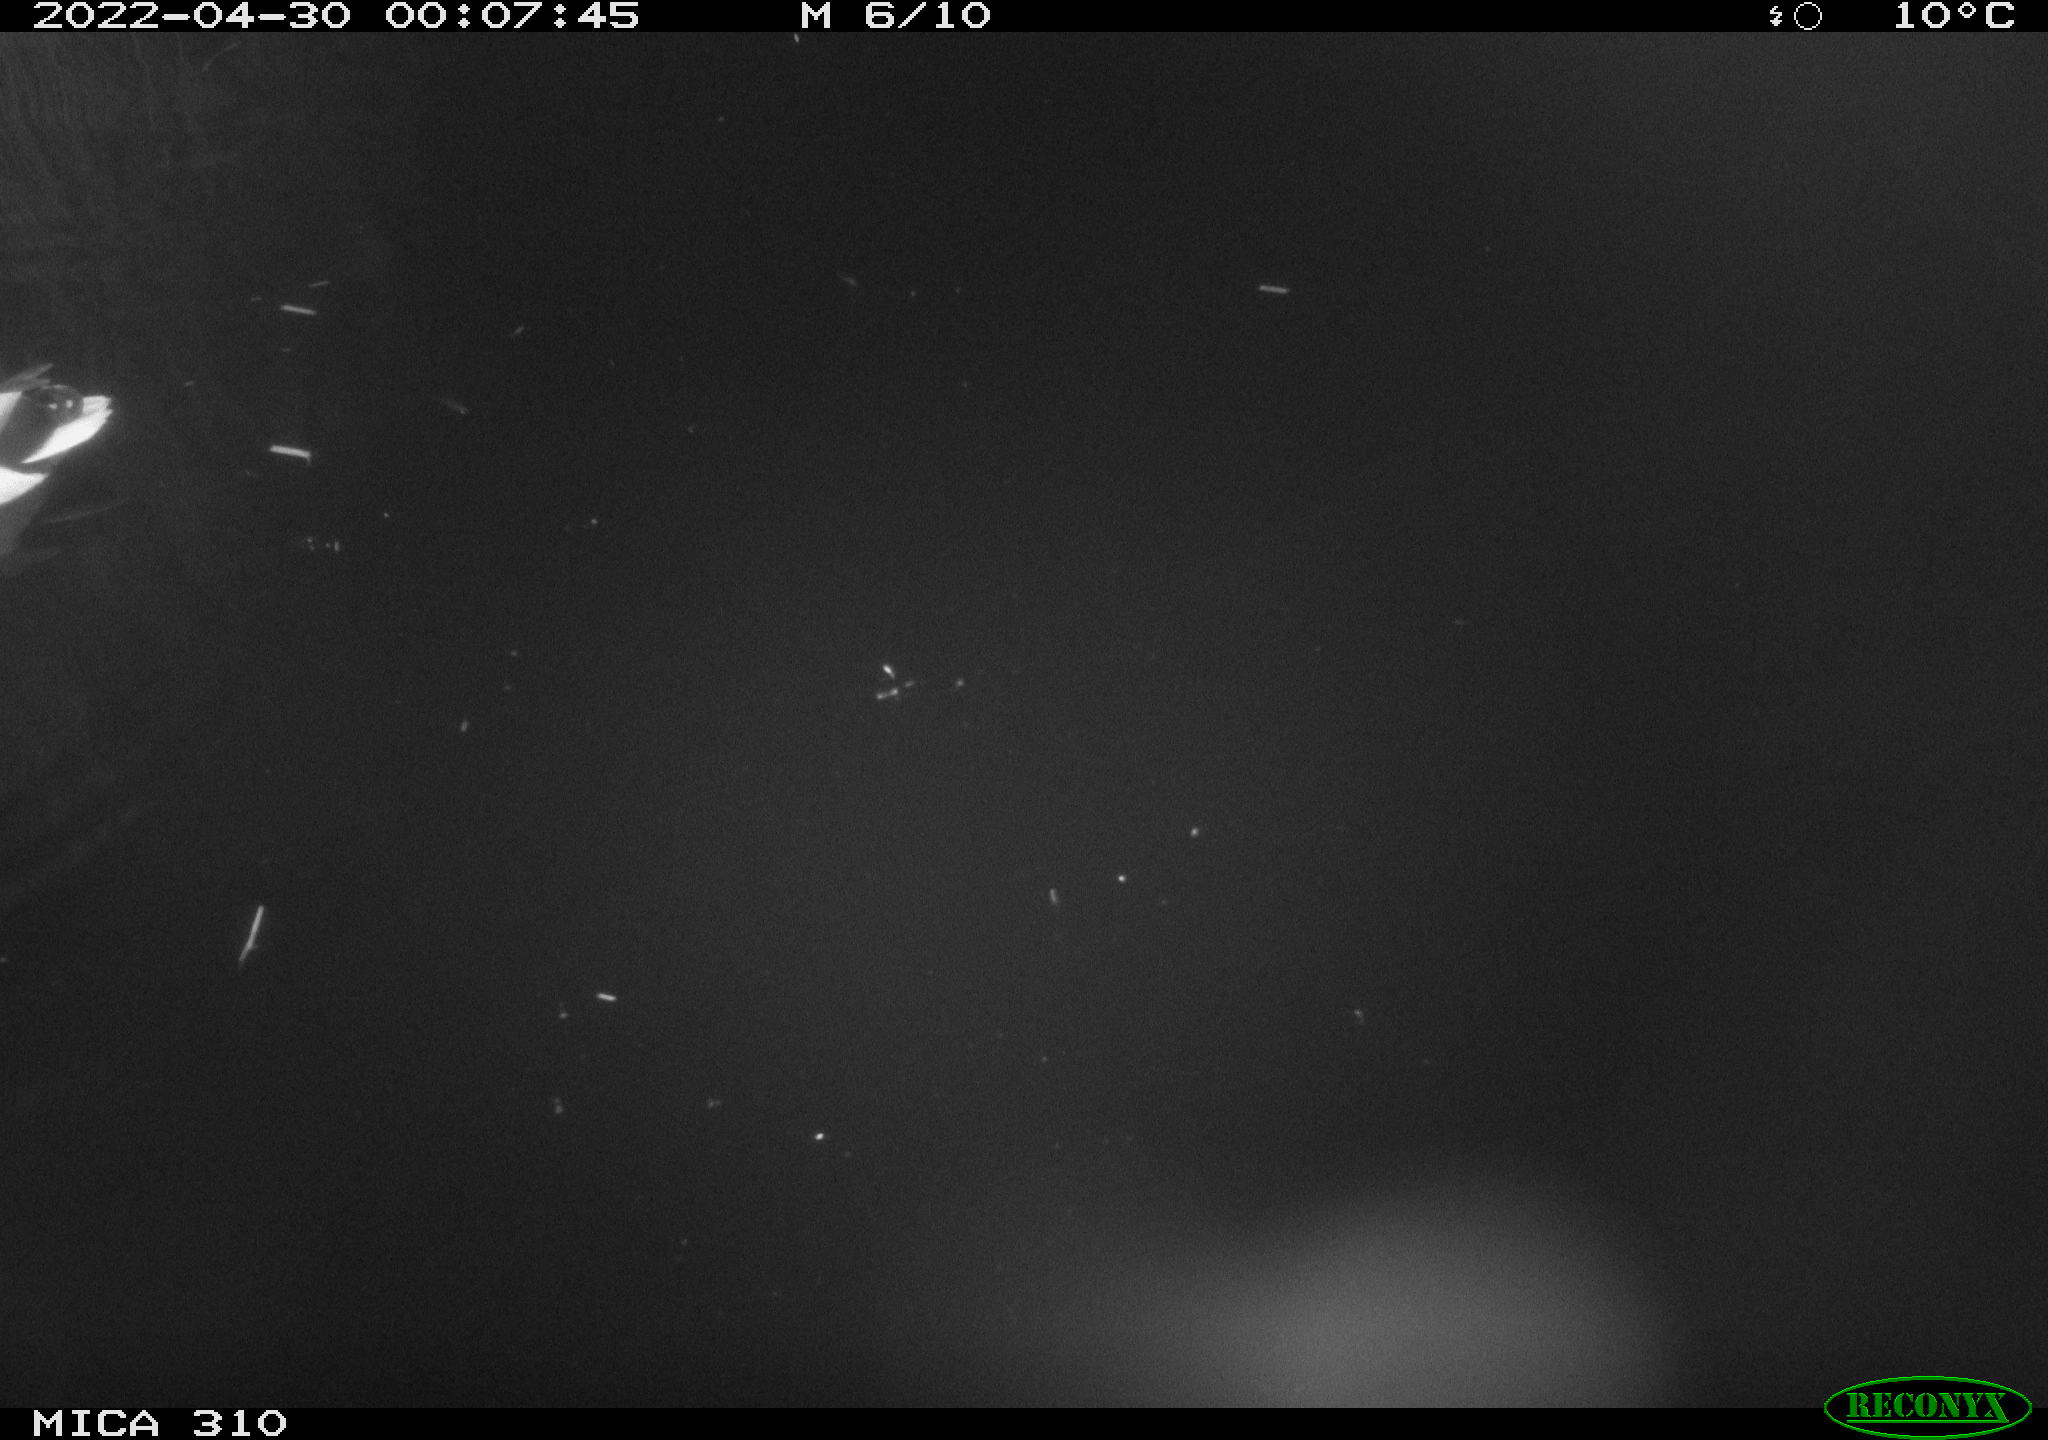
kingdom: Animalia
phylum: Chordata
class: Aves
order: Anseriformes
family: Anatidae
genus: Anas
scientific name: Anas platyrhynchos
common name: Mallard
